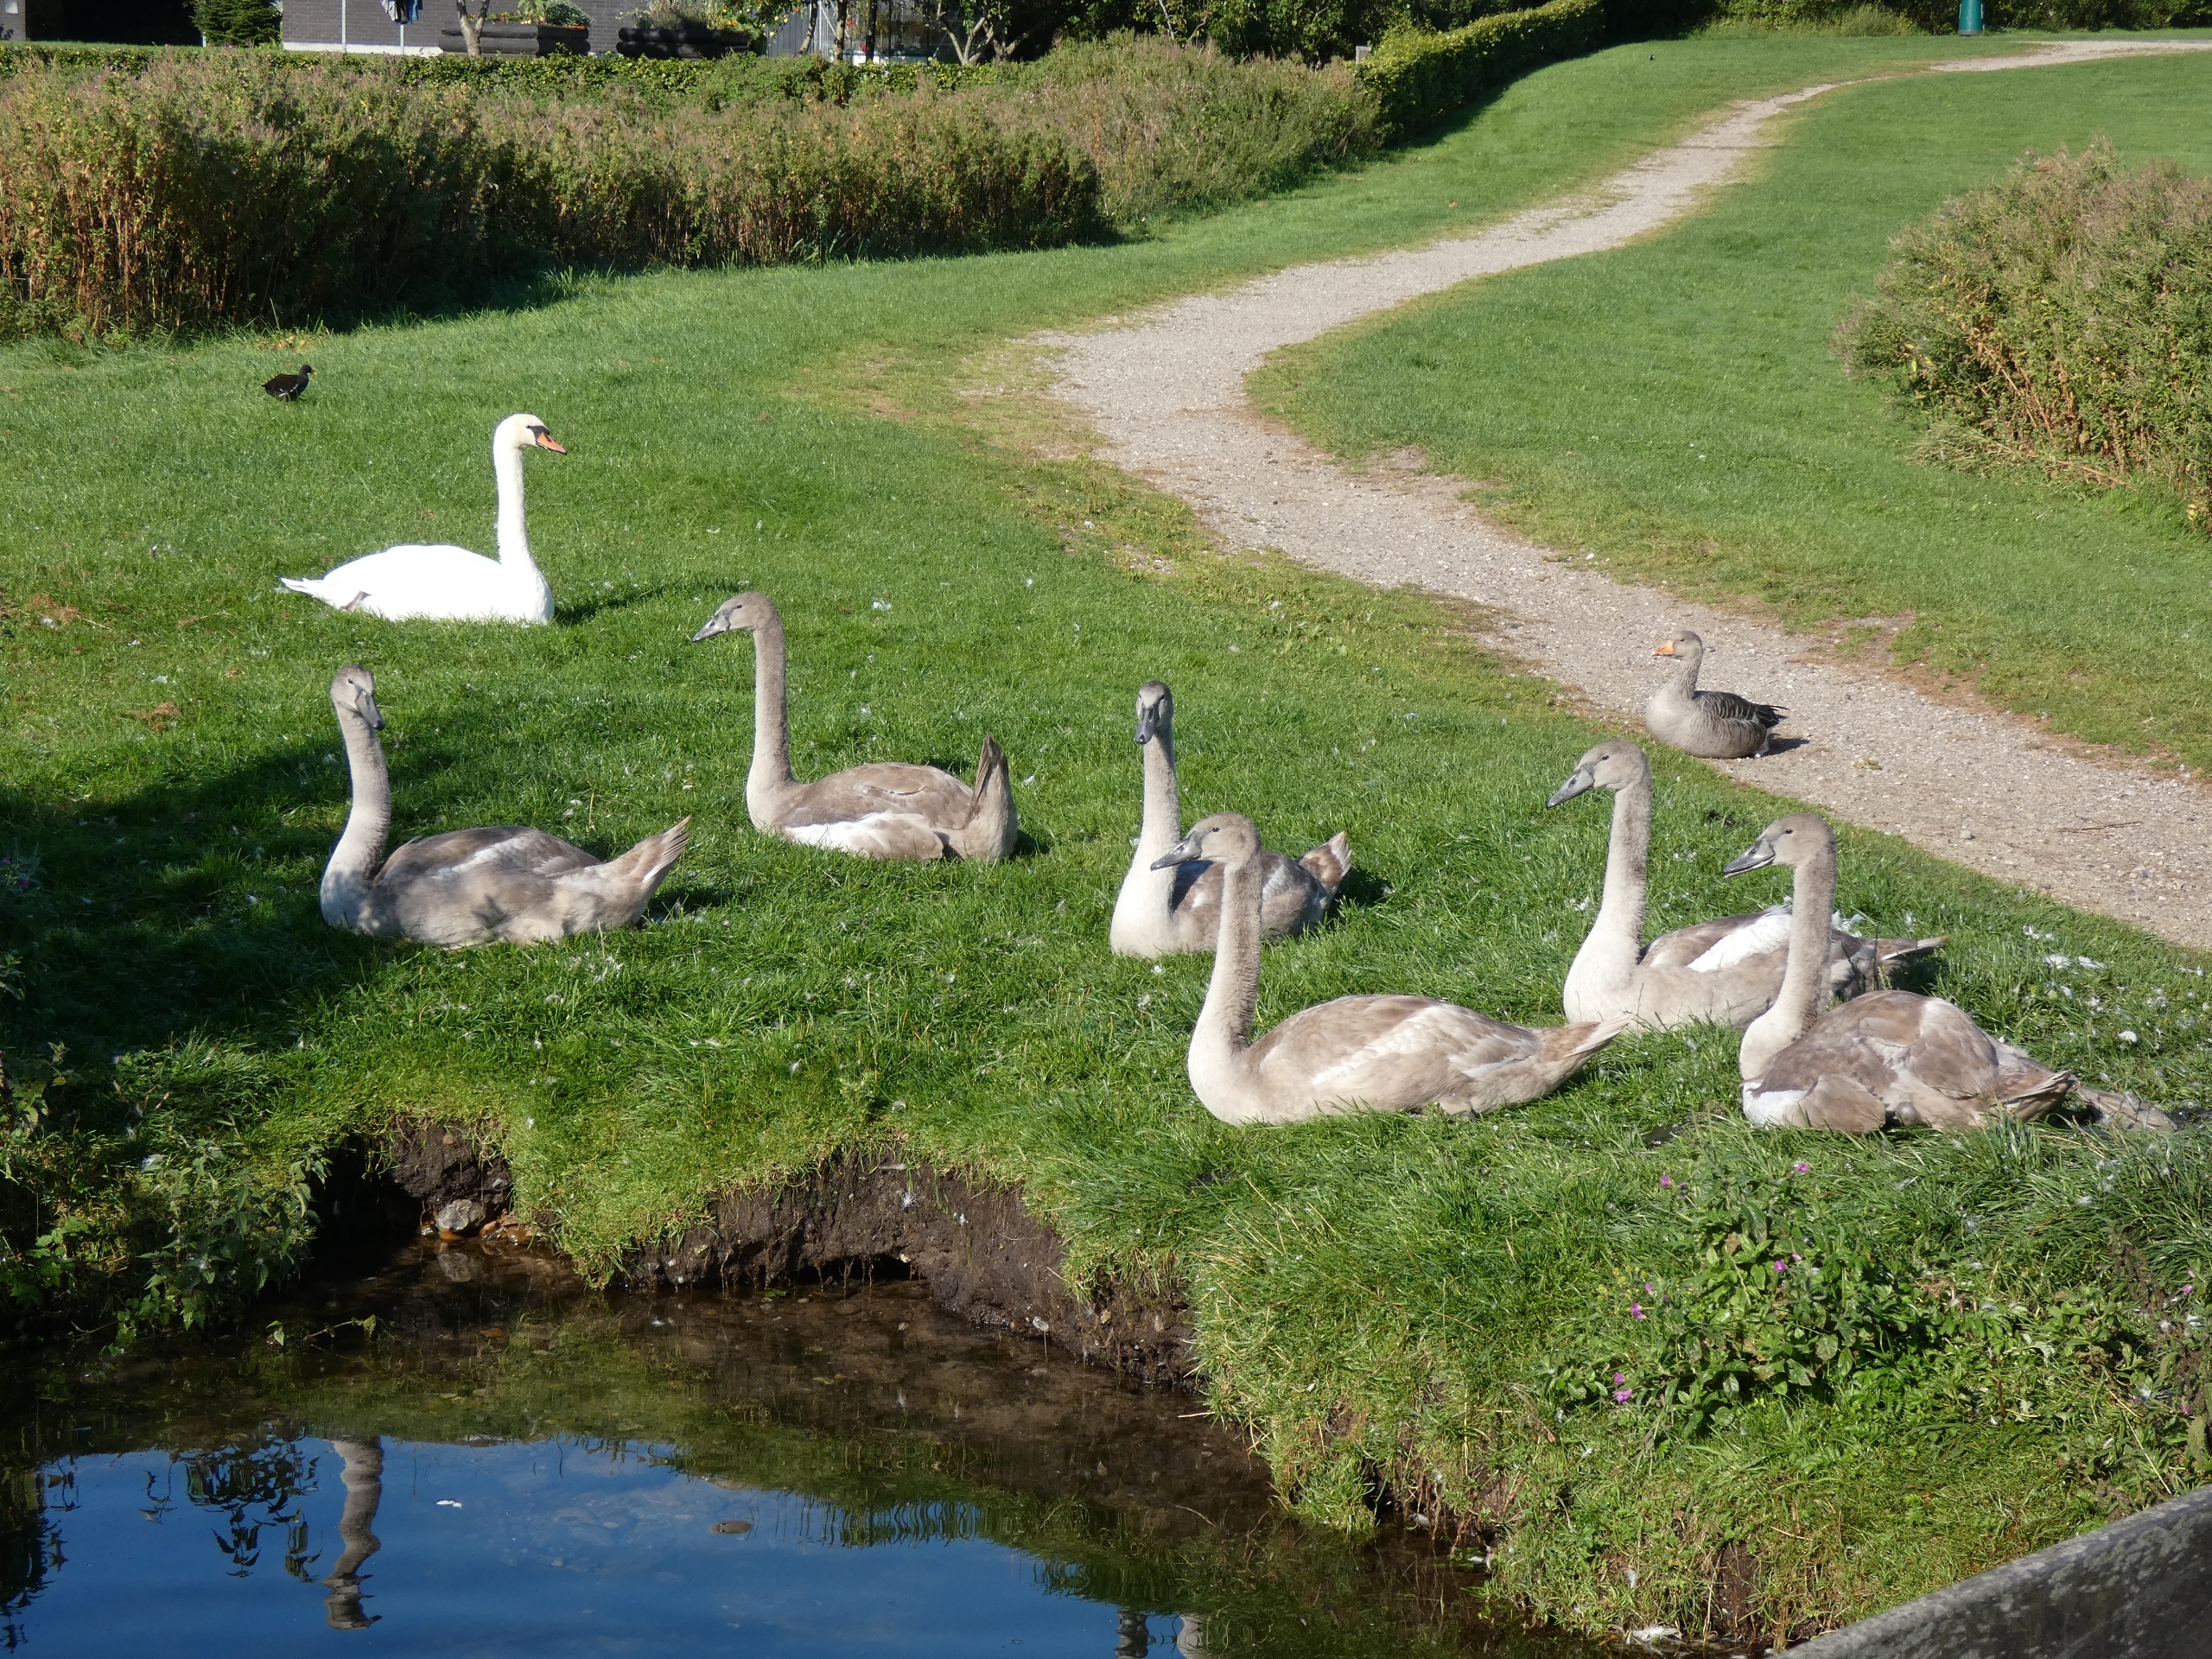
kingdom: Animalia
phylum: Chordata
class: Aves
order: Anseriformes
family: Anatidae
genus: Cygnus
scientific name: Cygnus olor
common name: Knopsvane
